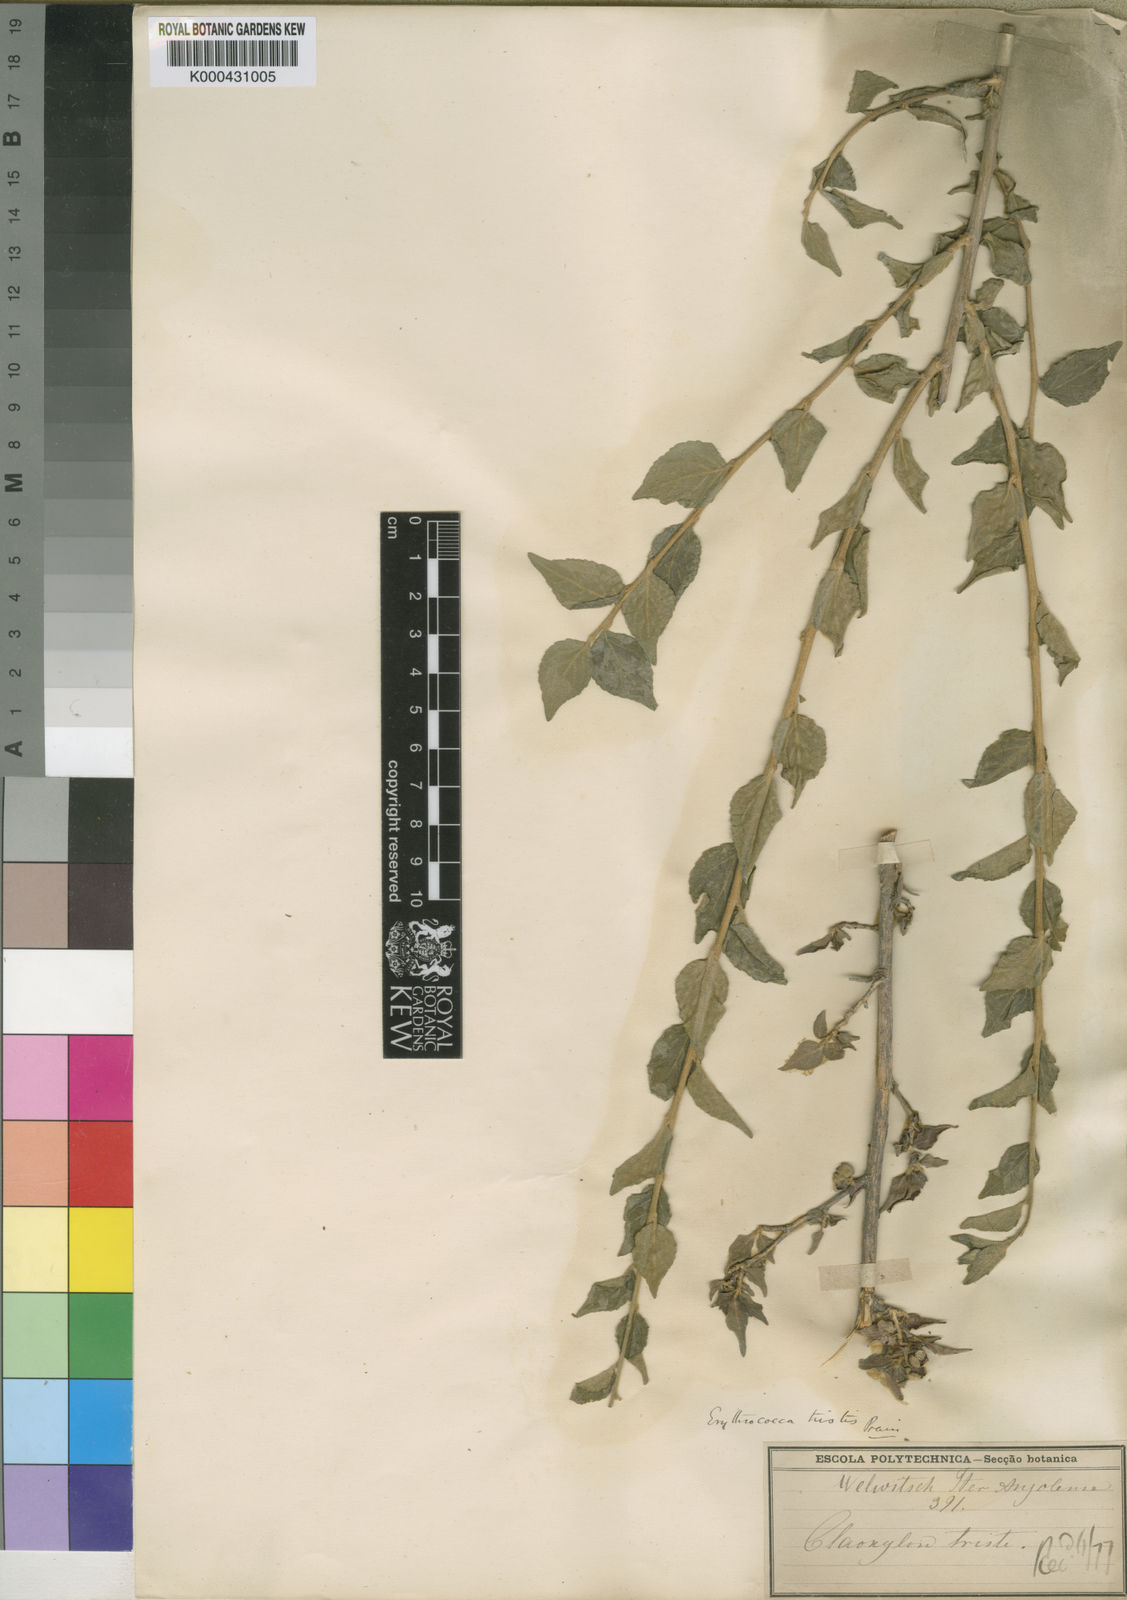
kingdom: Plantae
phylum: Tracheophyta
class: Magnoliopsida
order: Malpighiales
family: Euphorbiaceae
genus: Erythrococca
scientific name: Erythrococca
